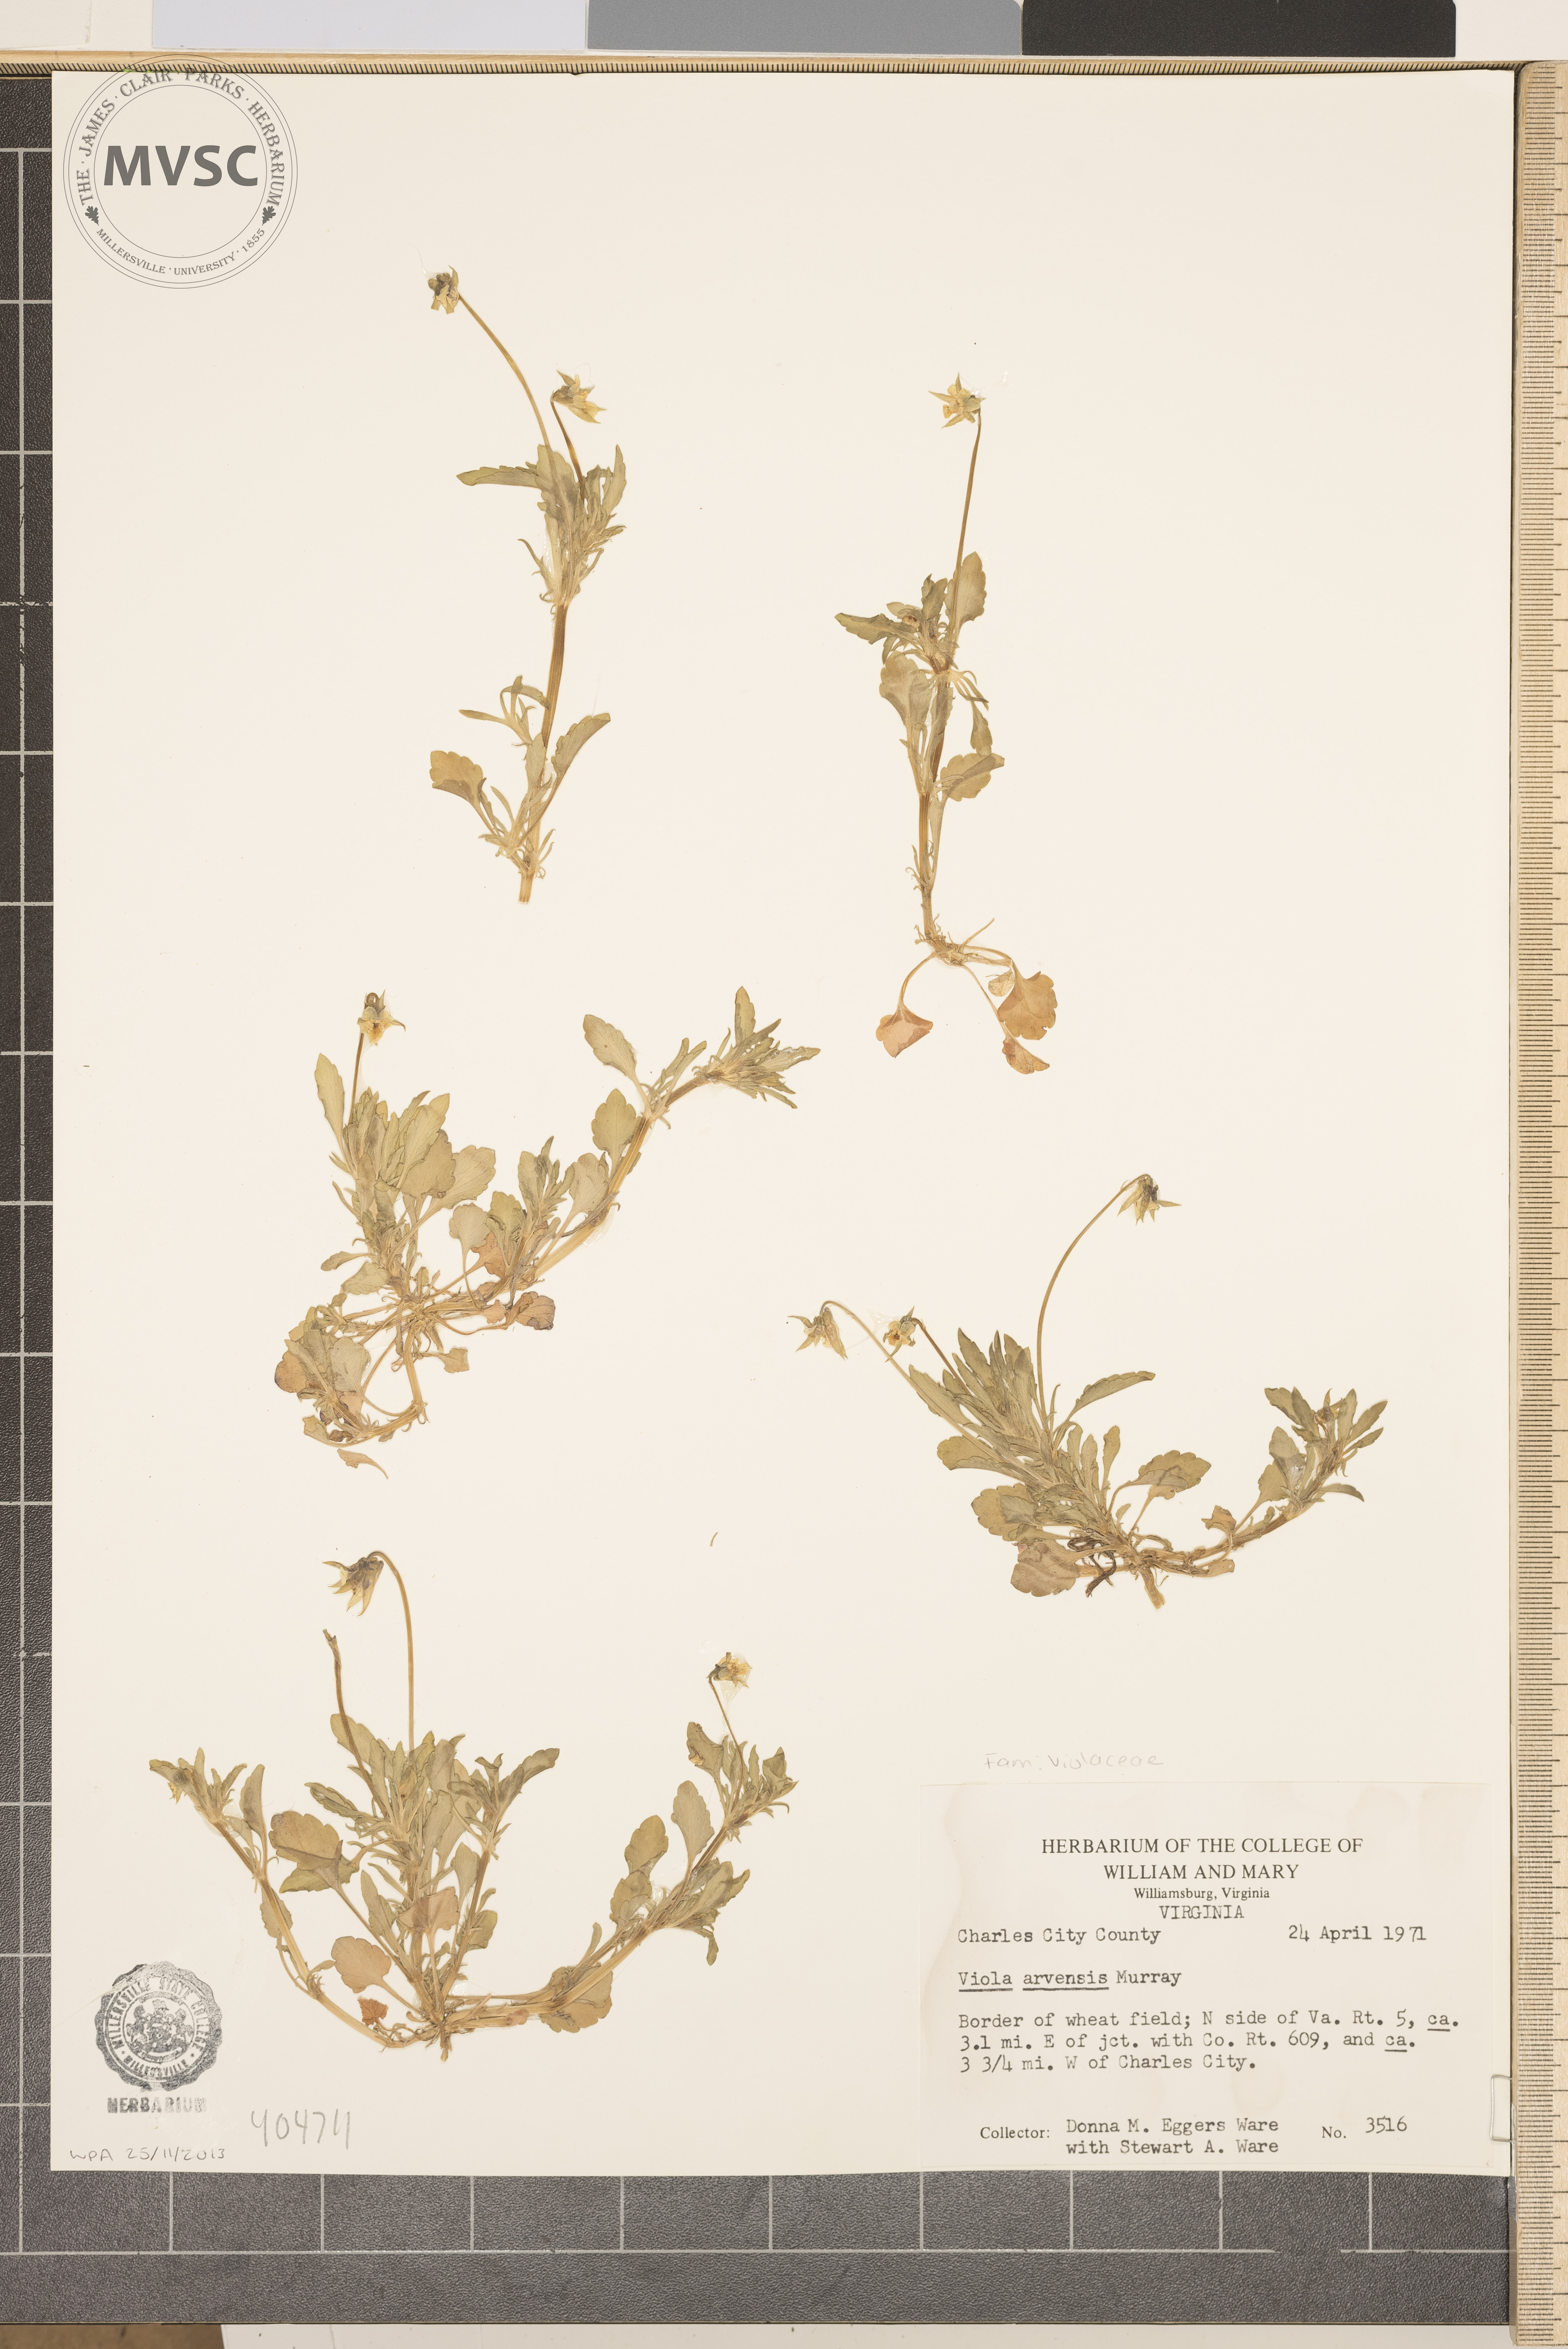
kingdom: Plantae
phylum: Tracheophyta
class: Magnoliopsida
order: Malpighiales
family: Violaceae
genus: Viola
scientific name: Viola arvensis
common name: Field pansy
